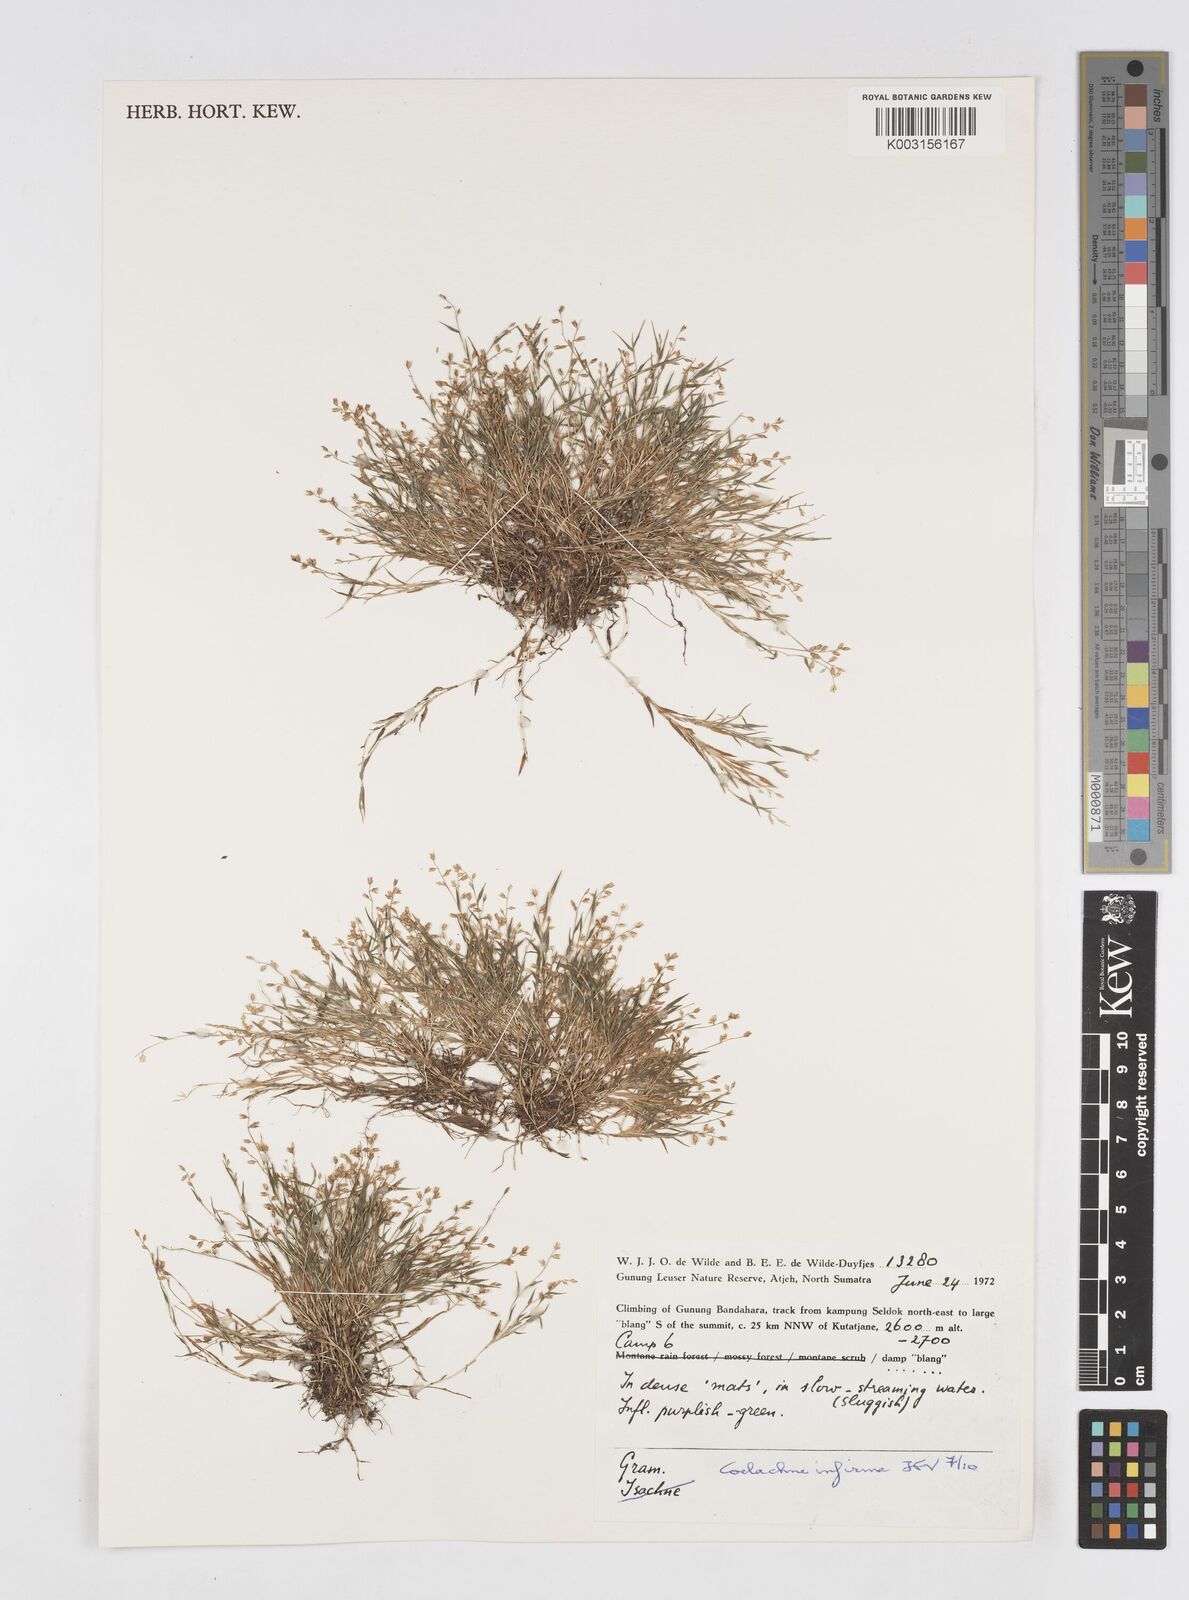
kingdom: Plantae
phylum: Tracheophyta
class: Liliopsida
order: Poales
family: Poaceae
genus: Coelachne
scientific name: Coelachne infirma
